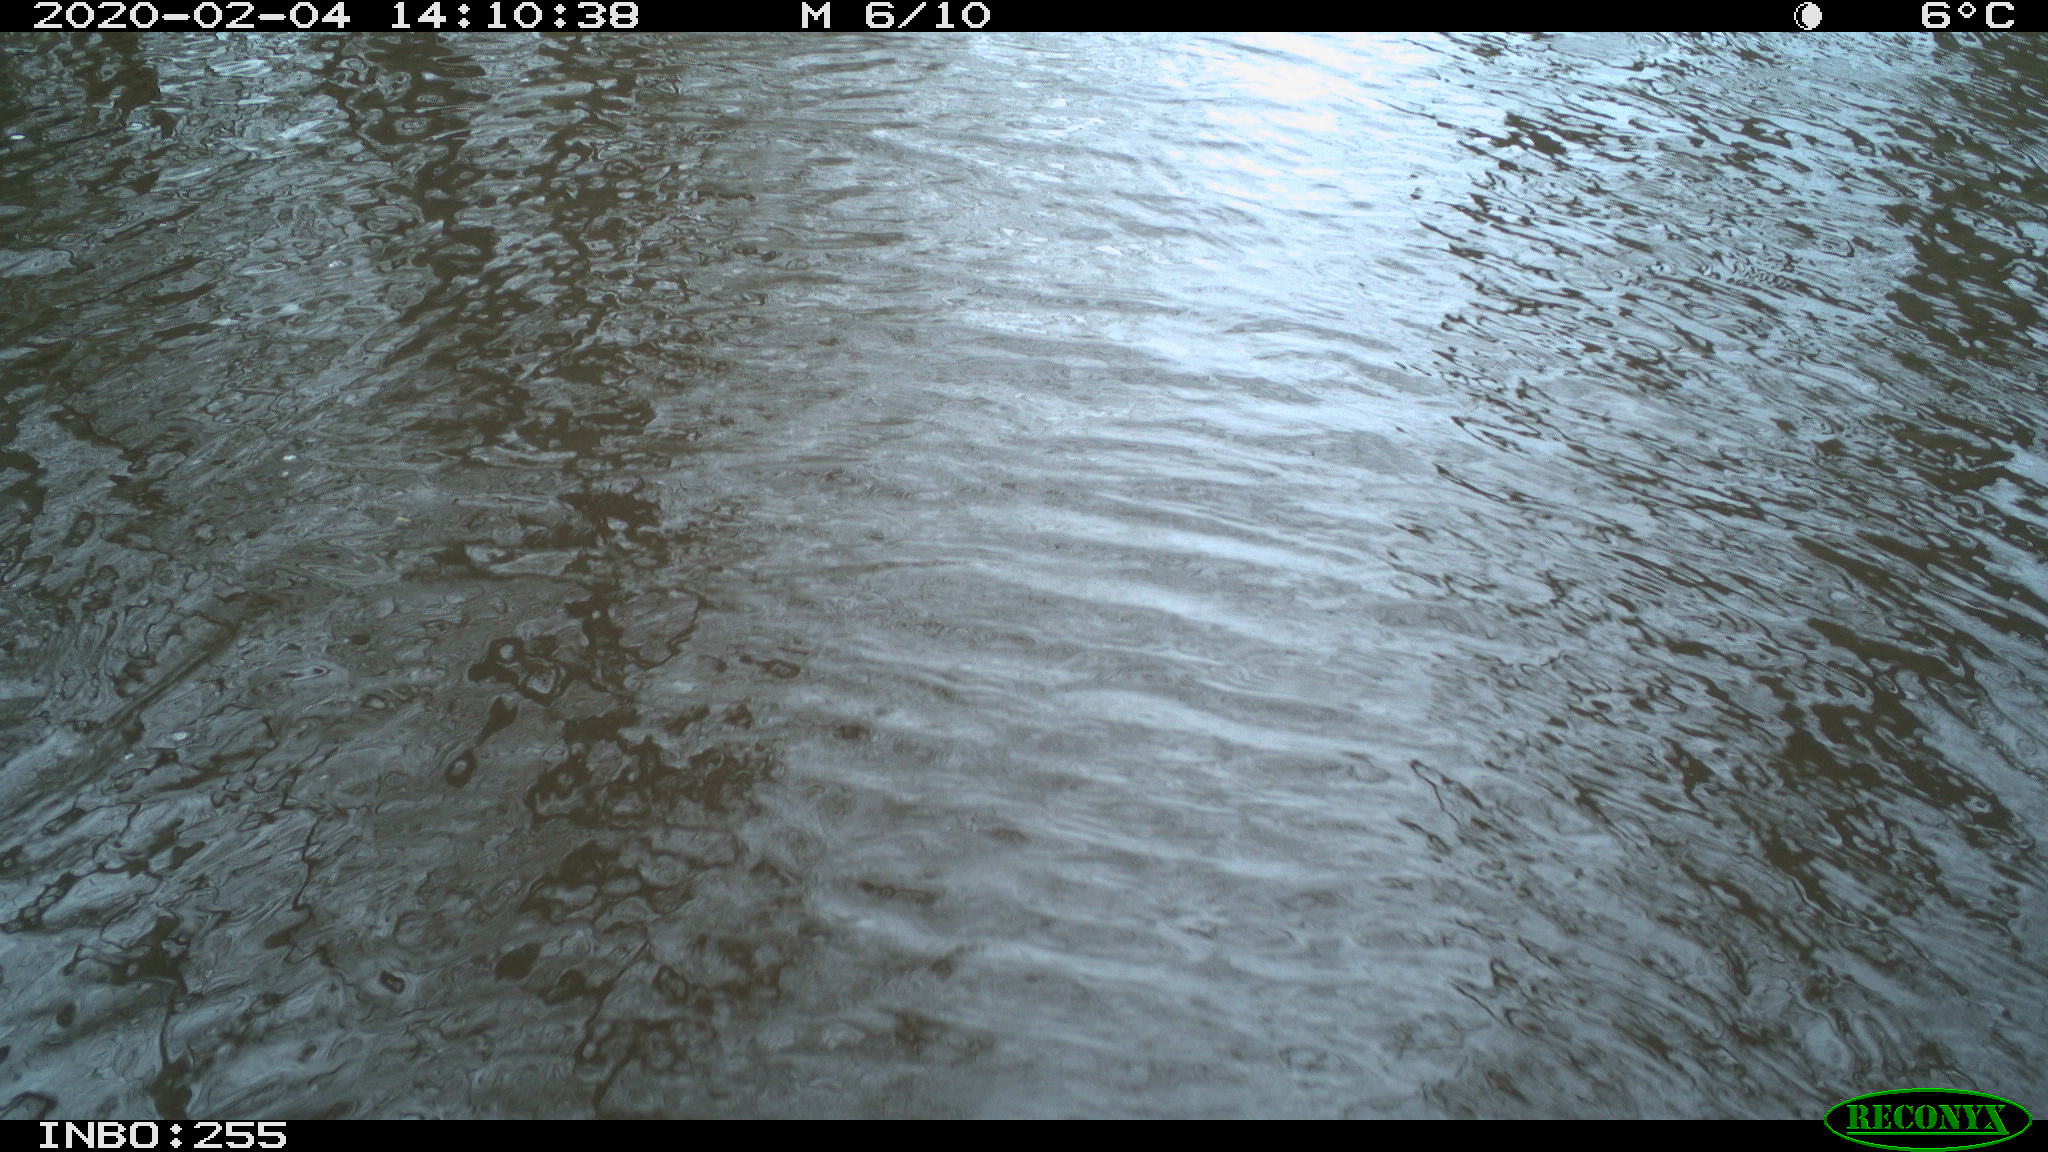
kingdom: Animalia
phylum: Chordata
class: Aves
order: Gruiformes
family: Rallidae
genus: Gallinula
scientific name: Gallinula chloropus
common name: Common moorhen
